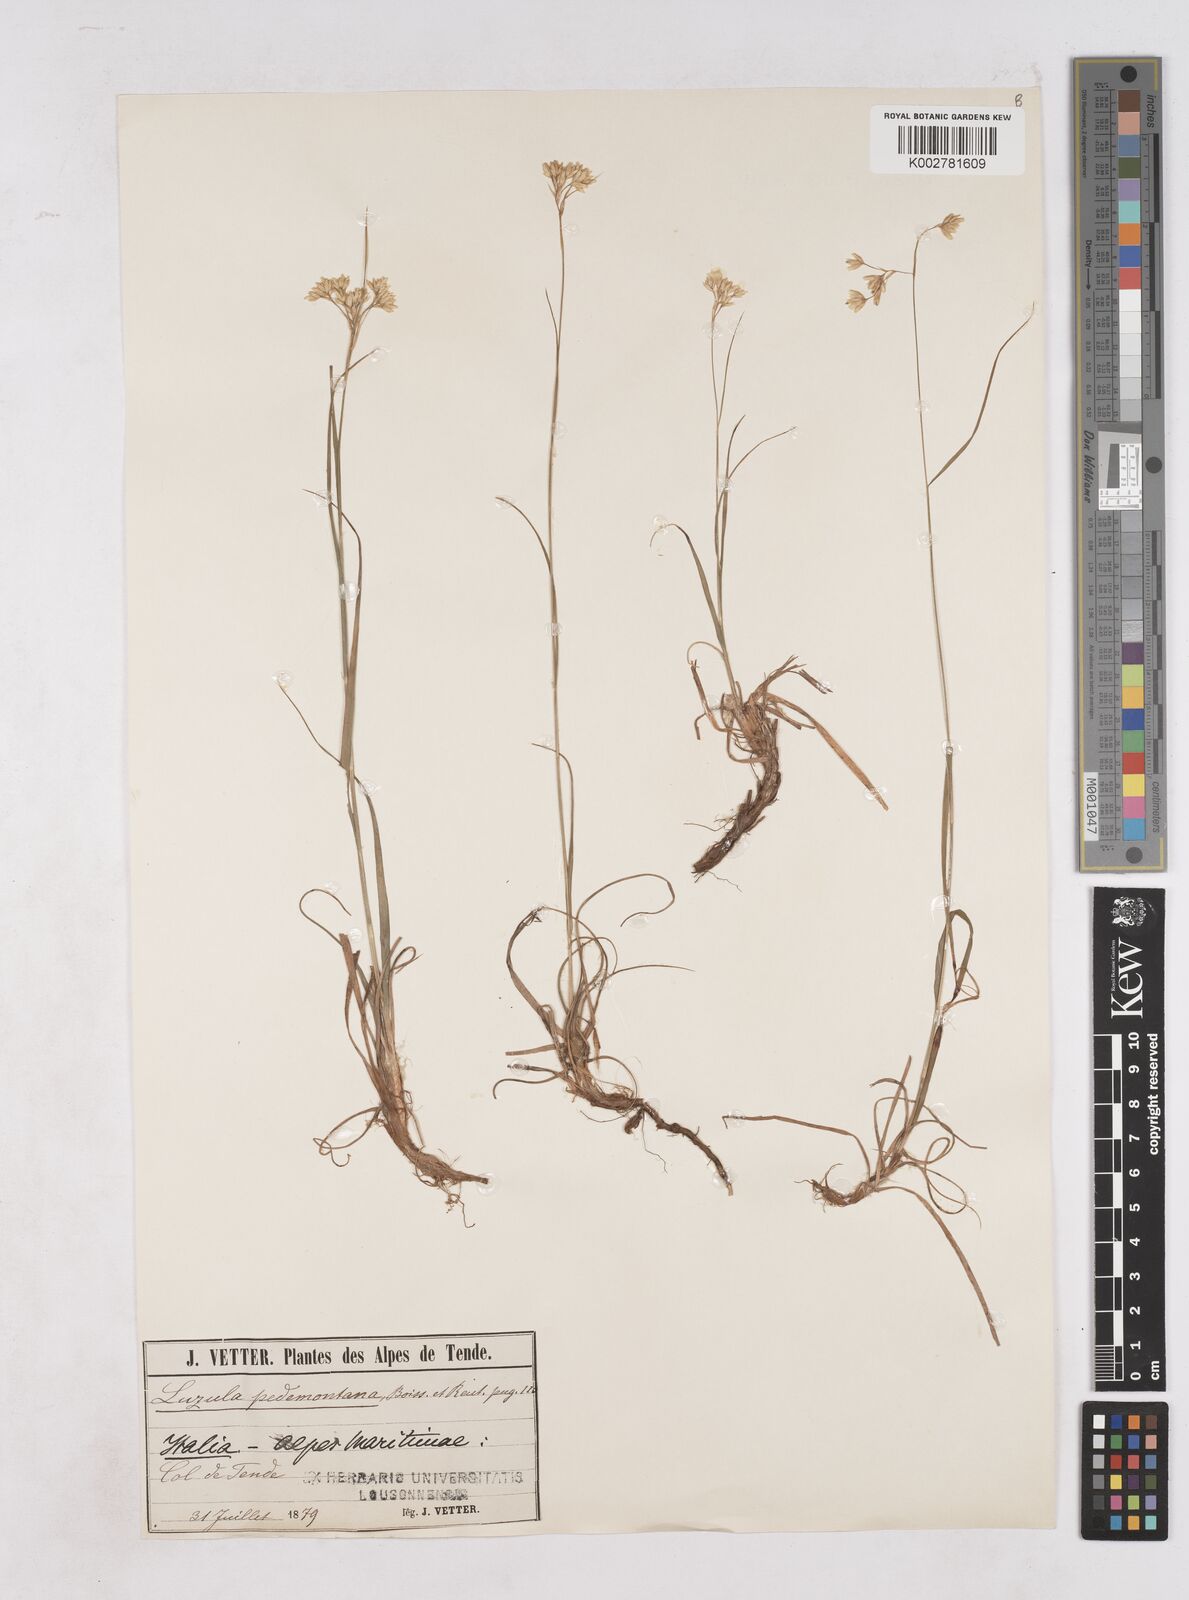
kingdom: Plantae
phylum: Tracheophyta
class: Liliopsida
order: Poales
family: Juncaceae
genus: Luzula
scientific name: Luzula pedemontana
